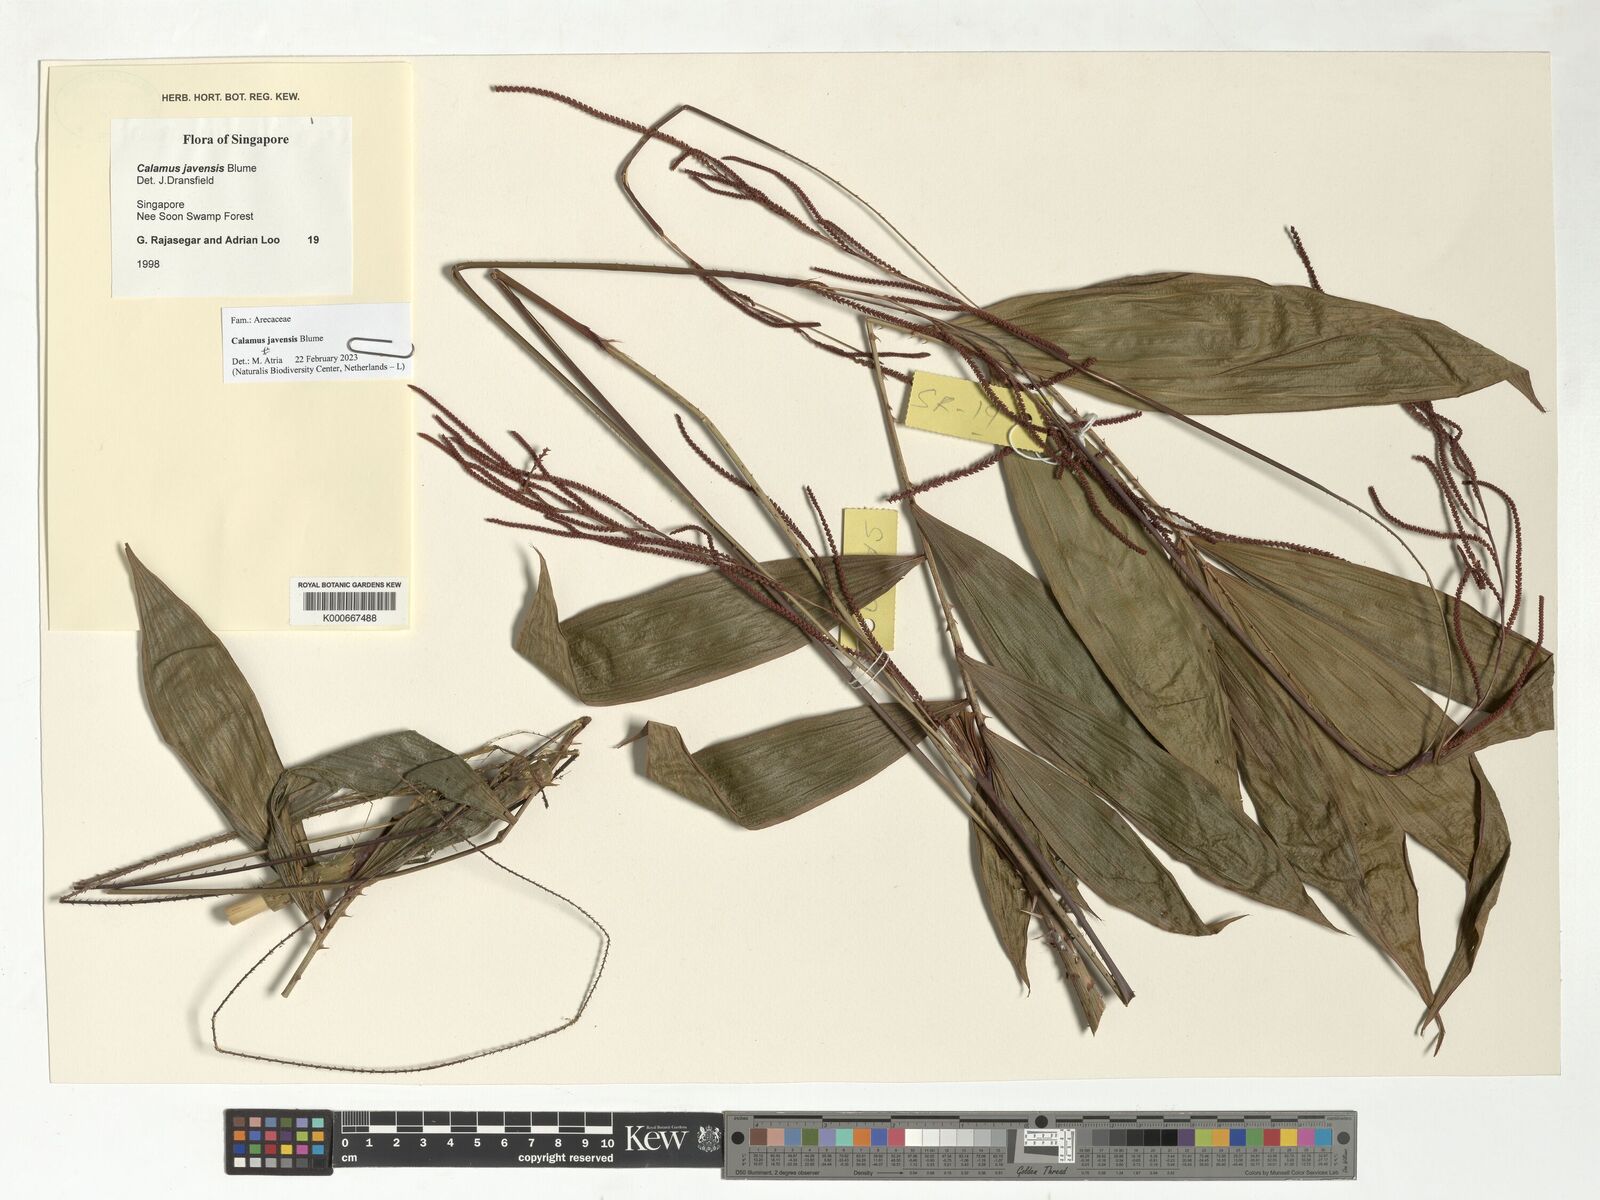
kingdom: Plantae
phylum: Tracheophyta
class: Liliopsida
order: Arecales
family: Arecaceae
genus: Calamus
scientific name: Calamus javensis
